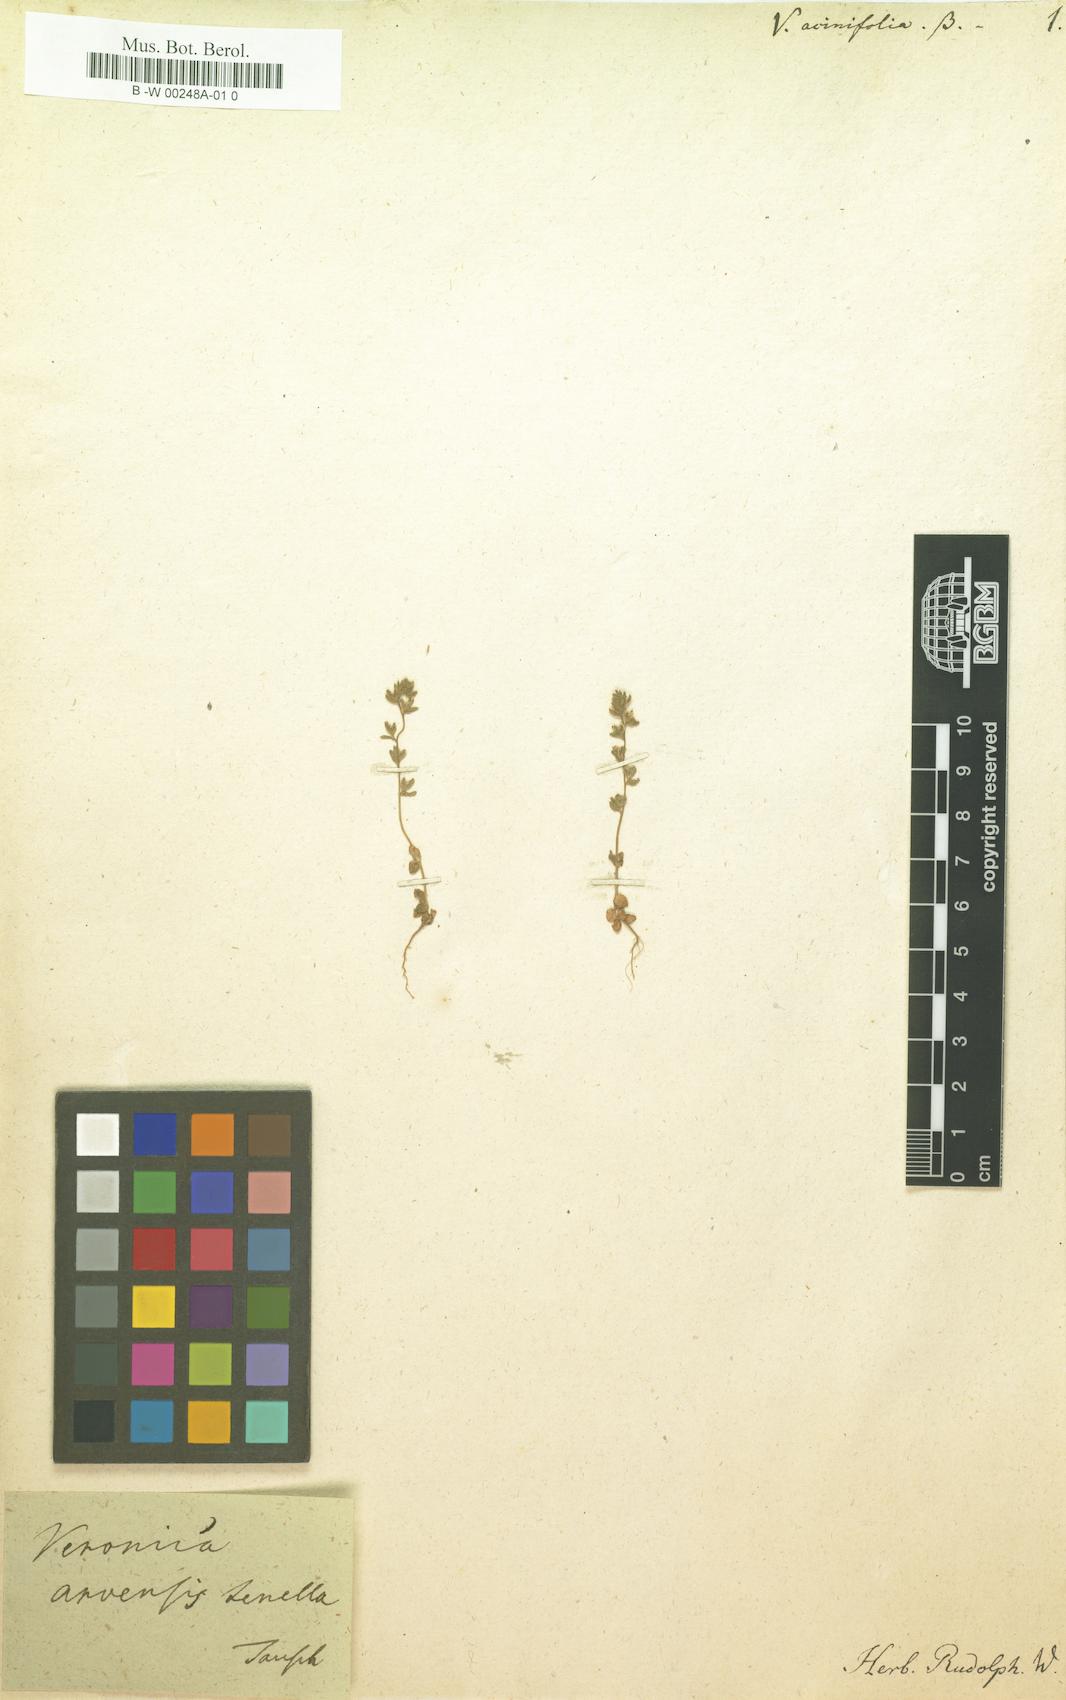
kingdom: Plantae
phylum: Tracheophyta
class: Magnoliopsida
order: Lamiales
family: Plantaginaceae
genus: Veronica
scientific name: Veronica acinifolia
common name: French speedwell
